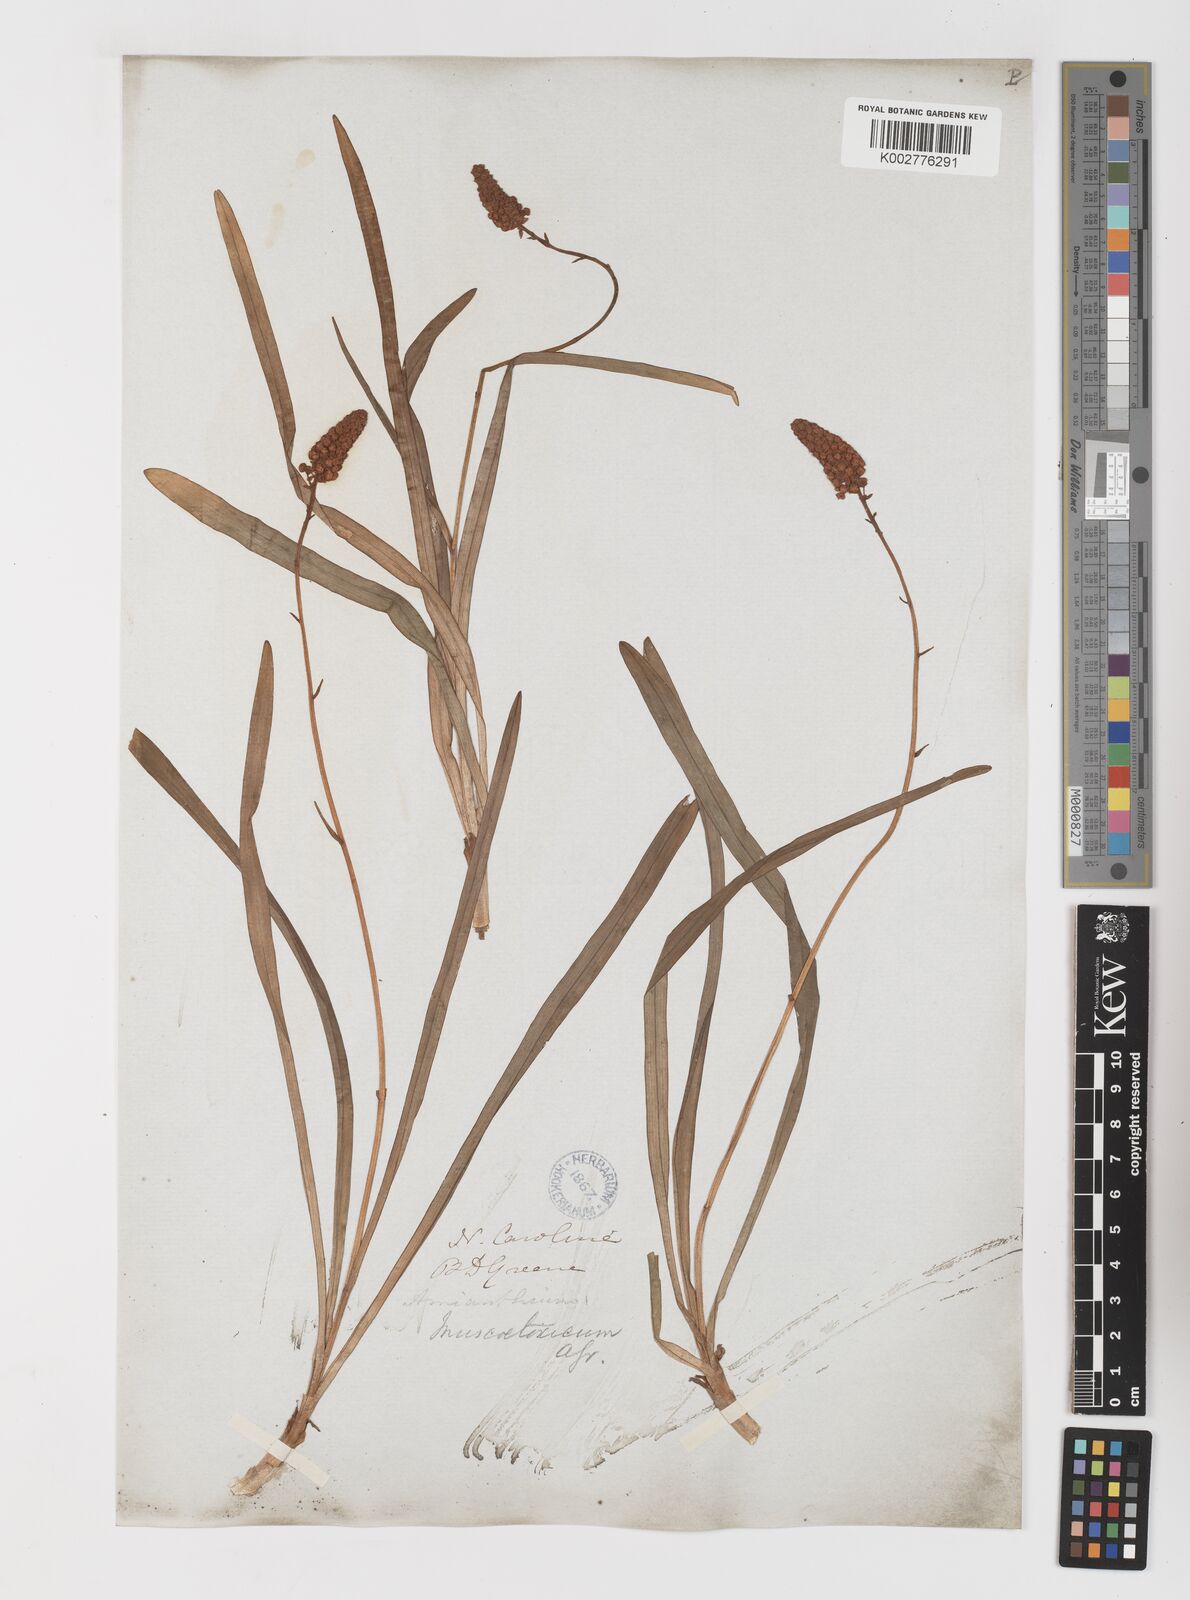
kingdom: Plantae
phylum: Tracheophyta
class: Liliopsida
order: Liliales
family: Melanthiaceae
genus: Amianthium
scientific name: Amianthium muscitoxicum
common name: Fly-poison
